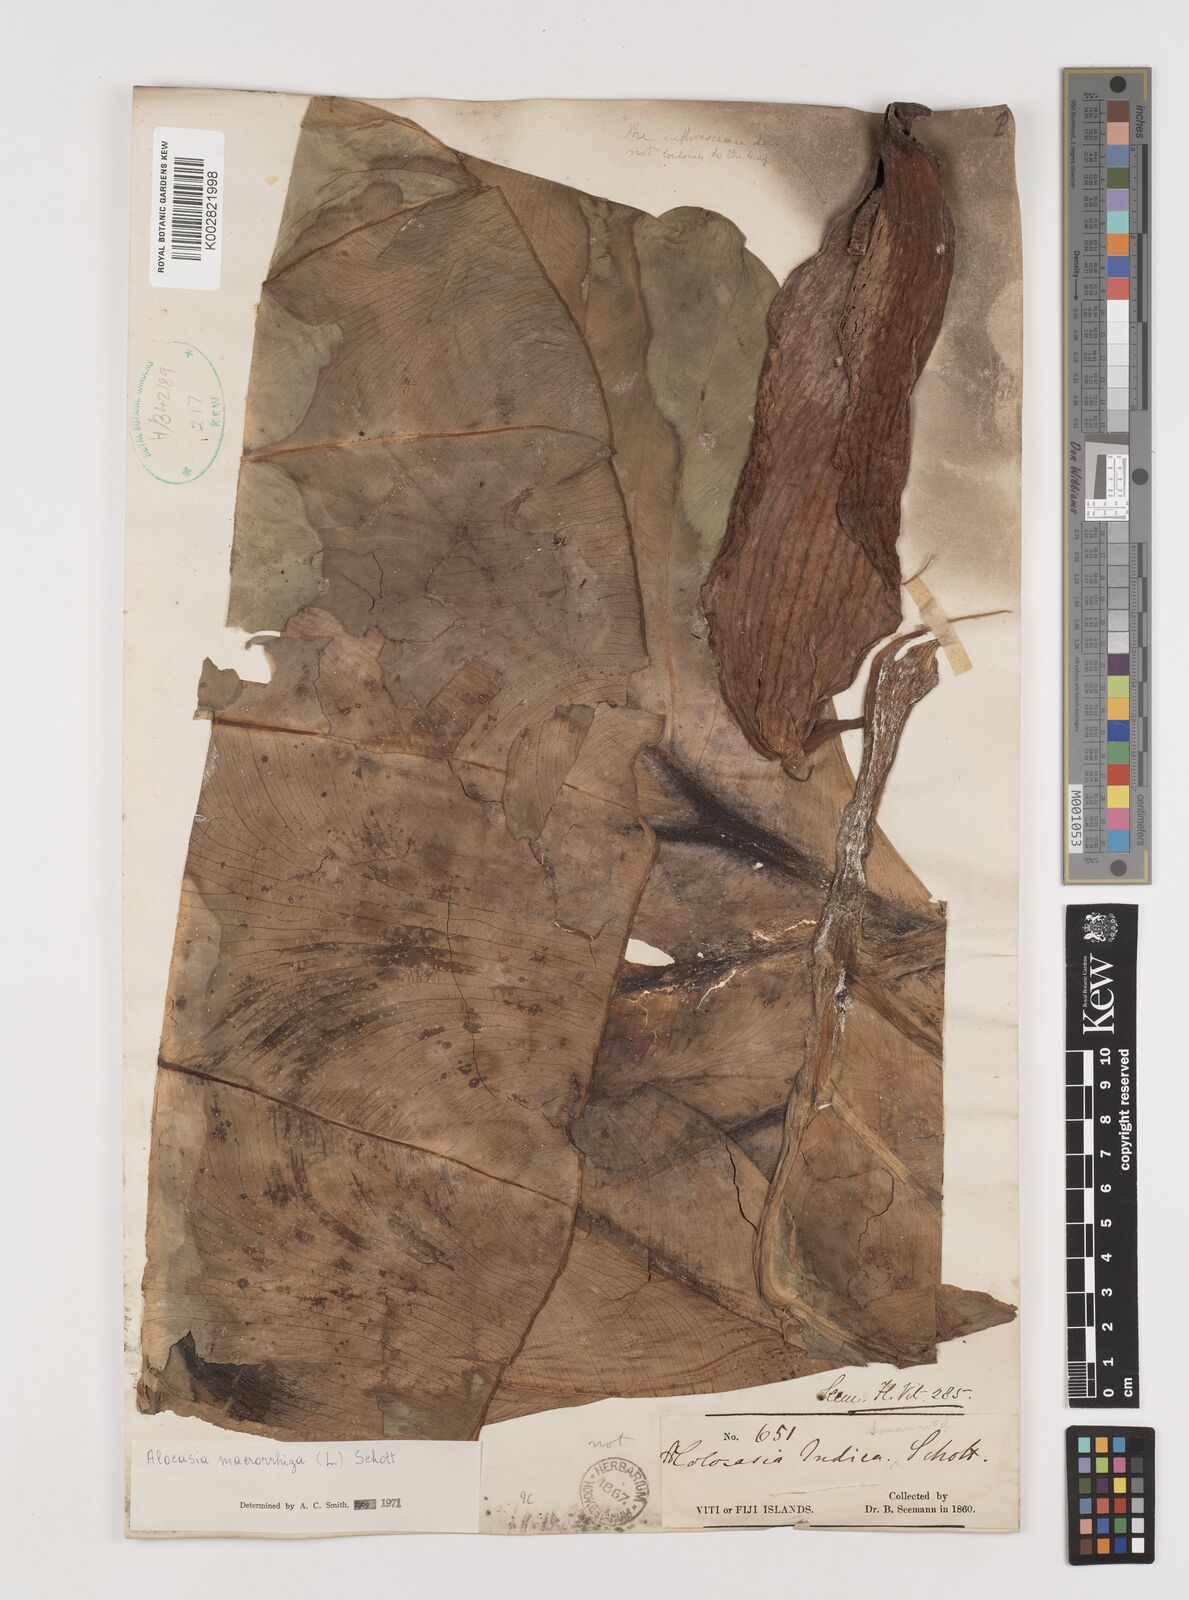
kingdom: Plantae
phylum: Tracheophyta
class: Liliopsida
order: Alismatales
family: Araceae
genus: Alocasia
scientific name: Alocasia indica
